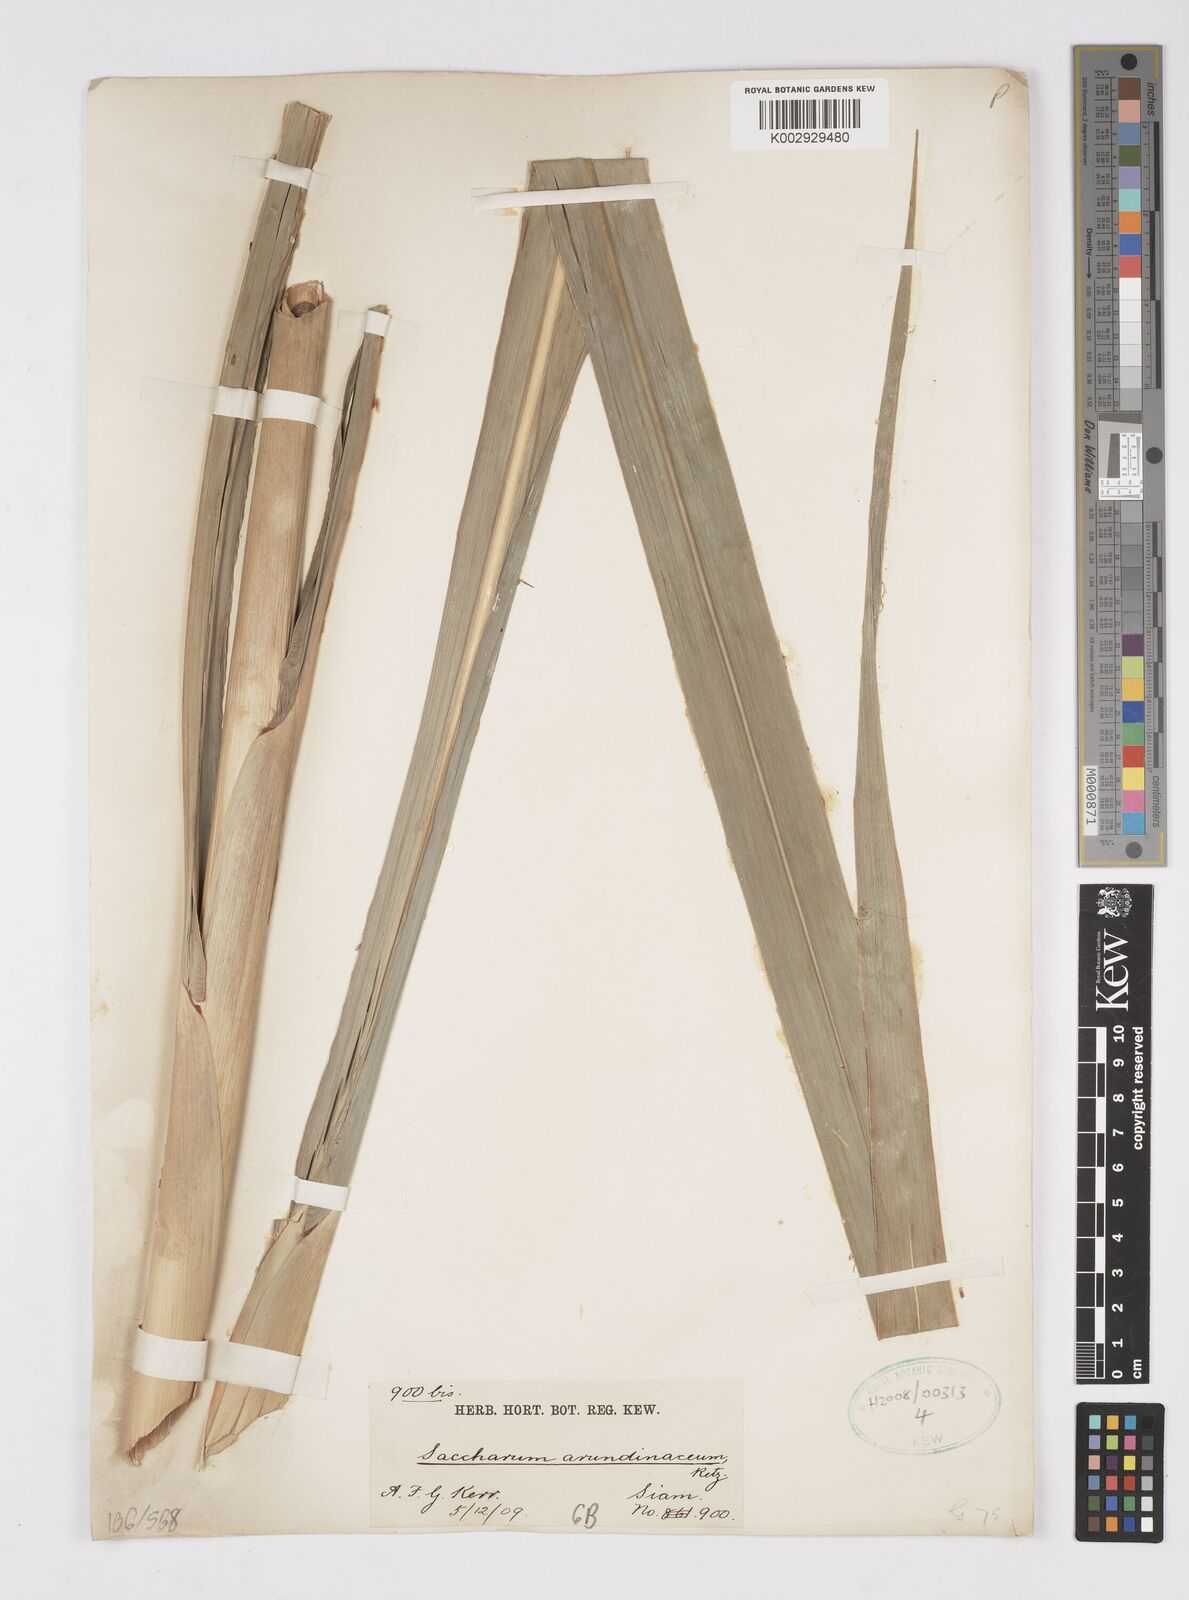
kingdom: Plantae
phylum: Tracheophyta
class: Liliopsida
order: Poales
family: Poaceae
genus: Tripidium
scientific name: Tripidium arundinaceum
